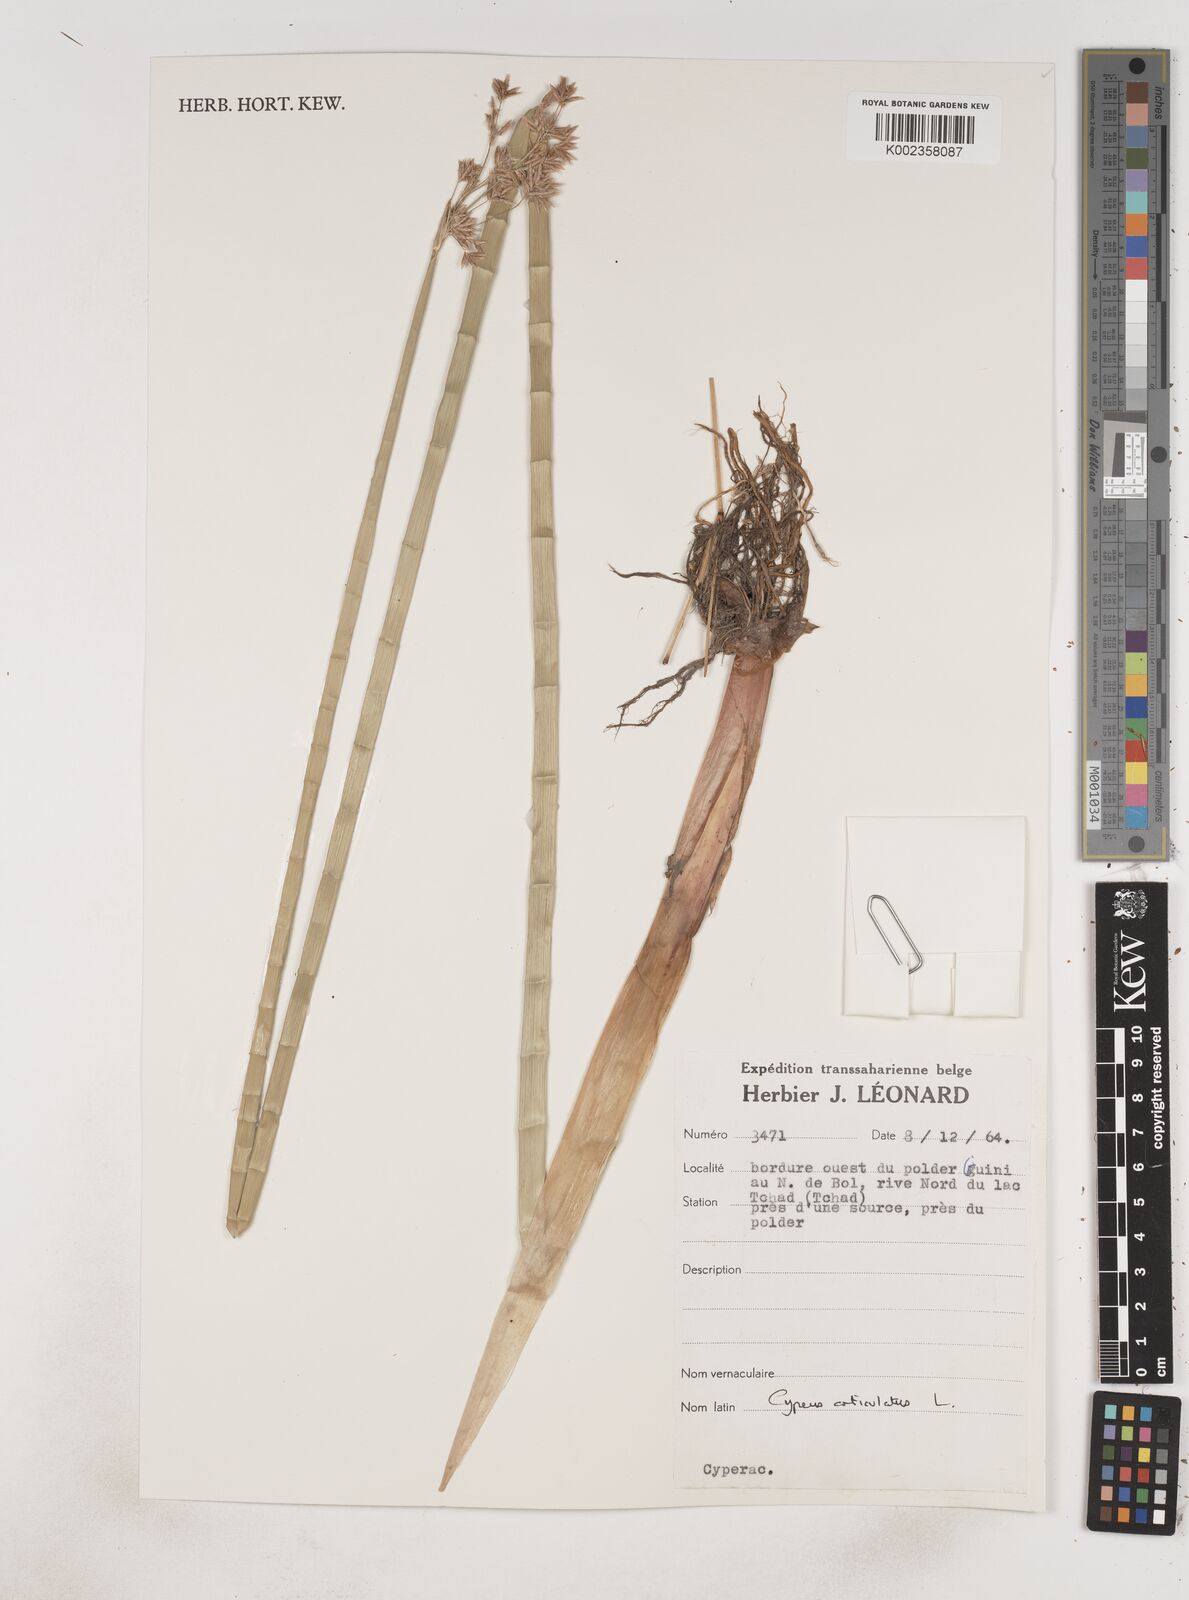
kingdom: Plantae
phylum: Tracheophyta
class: Liliopsida
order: Poales
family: Cyperaceae
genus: Cyperus
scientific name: Cyperus articulatus
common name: Jointed flatsedge
